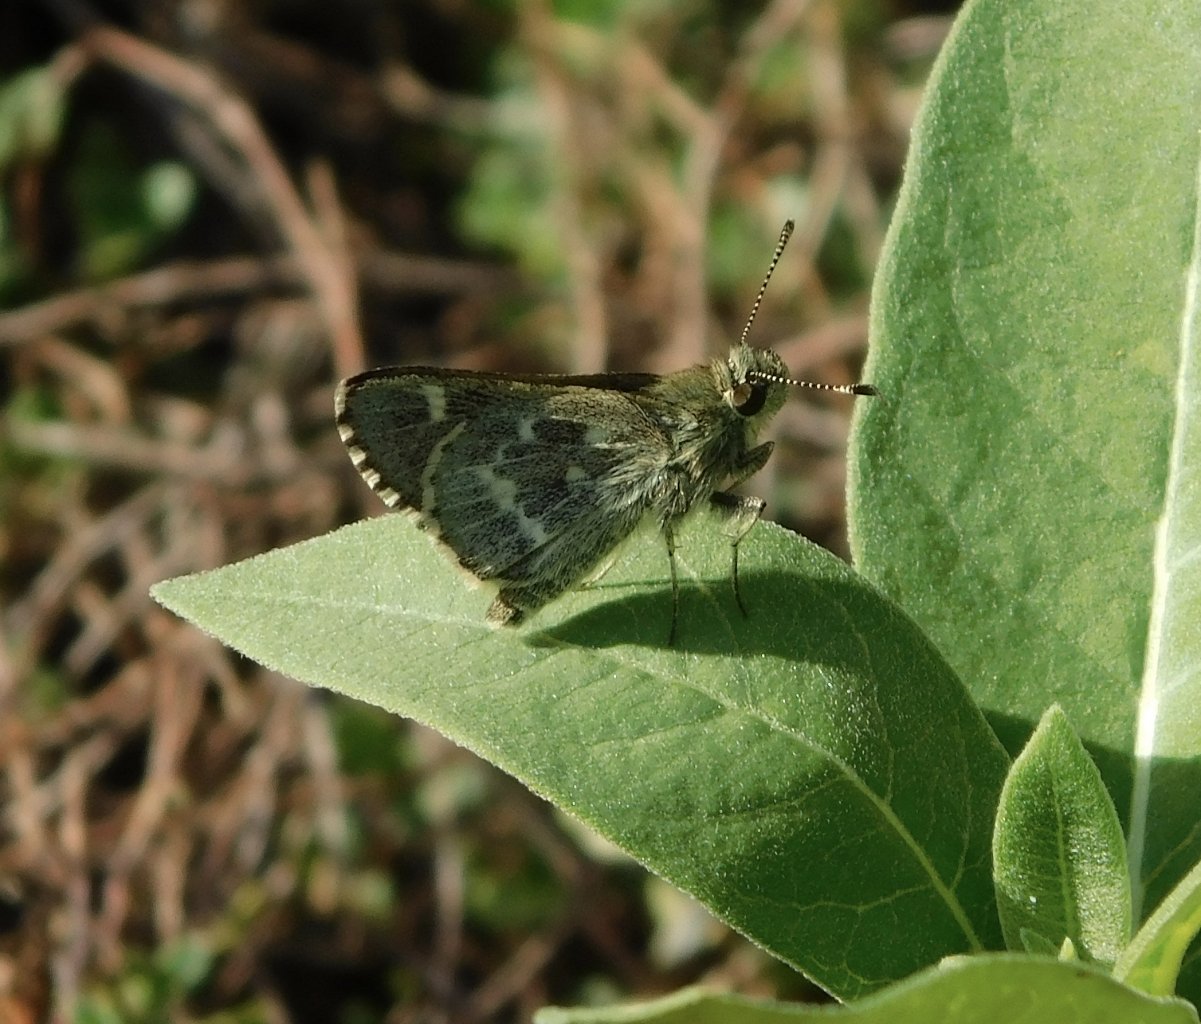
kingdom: Animalia
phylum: Arthropoda
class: Insecta
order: Lepidoptera
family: Hesperiidae
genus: Mastor
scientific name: Mastor hegon
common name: Pepper and Salt Skipper
